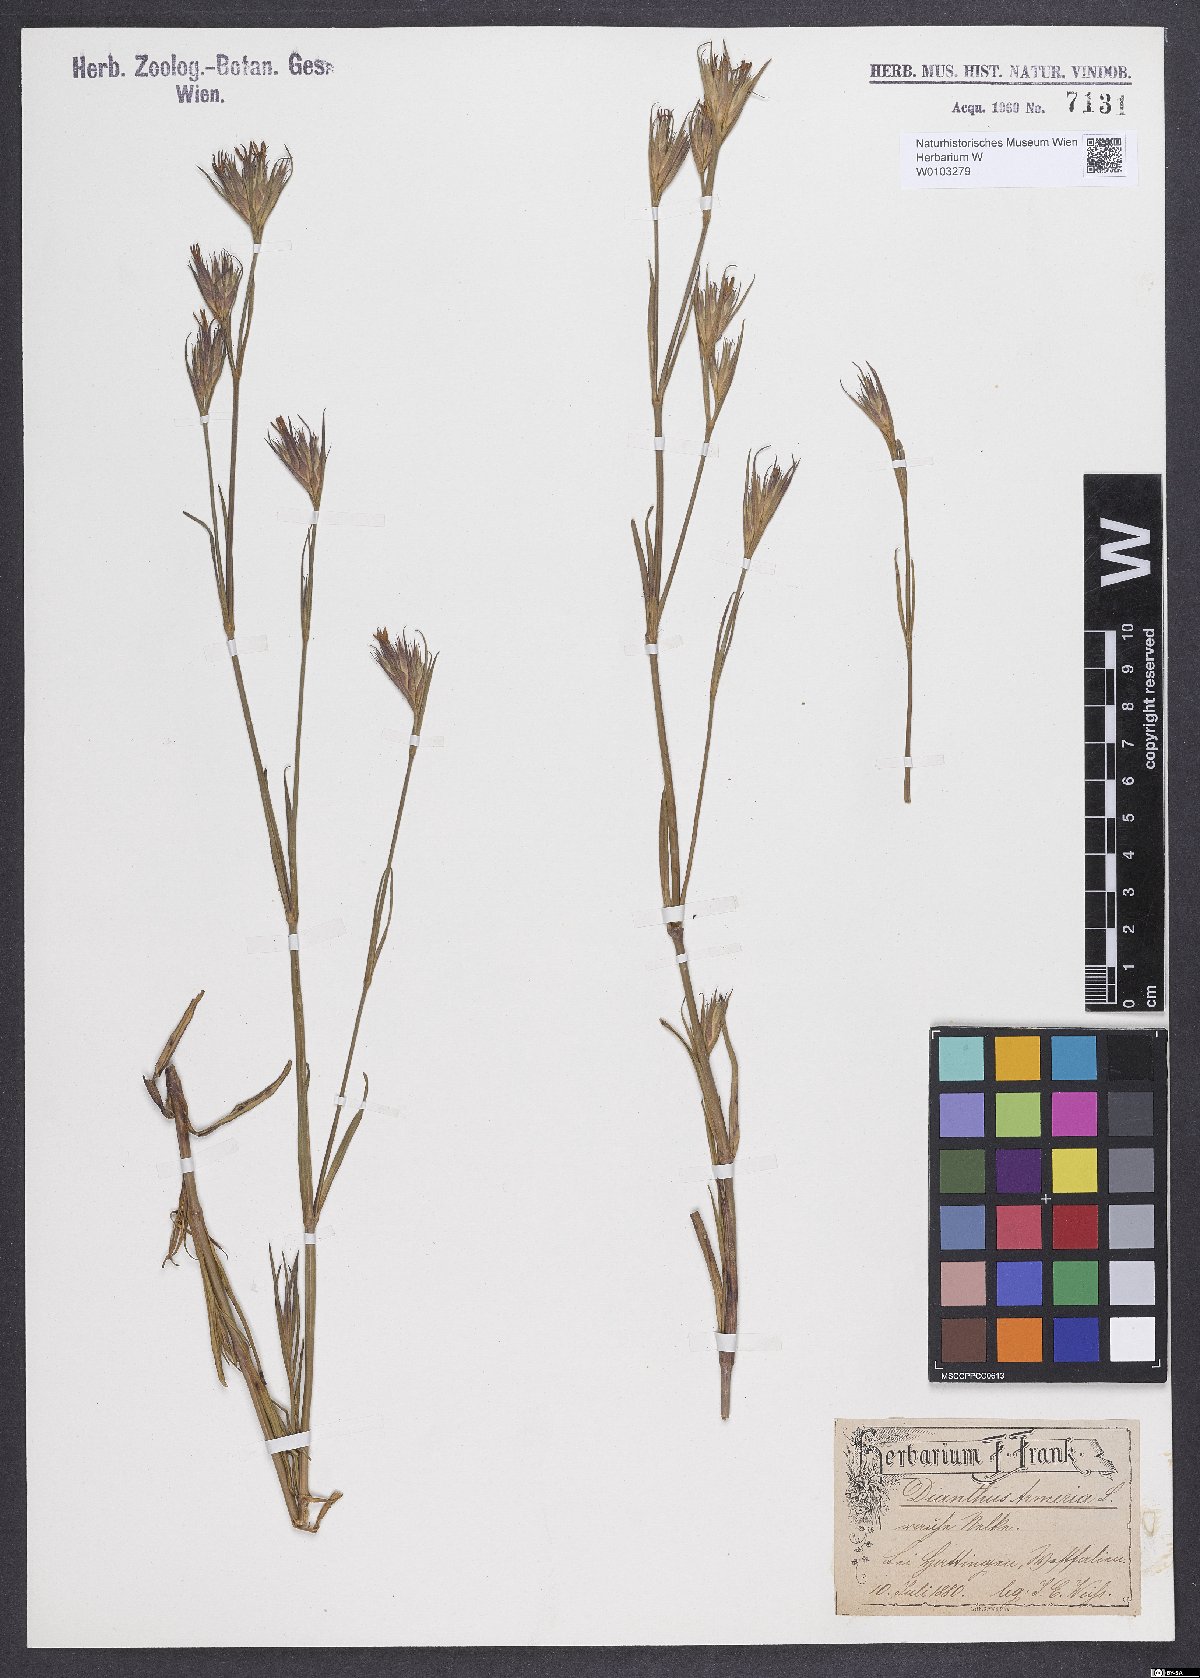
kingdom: Plantae
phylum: Tracheophyta
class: Magnoliopsida
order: Caryophyllales
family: Caryophyllaceae
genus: Dianthus
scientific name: Dianthus armeria
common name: Deptford pink
